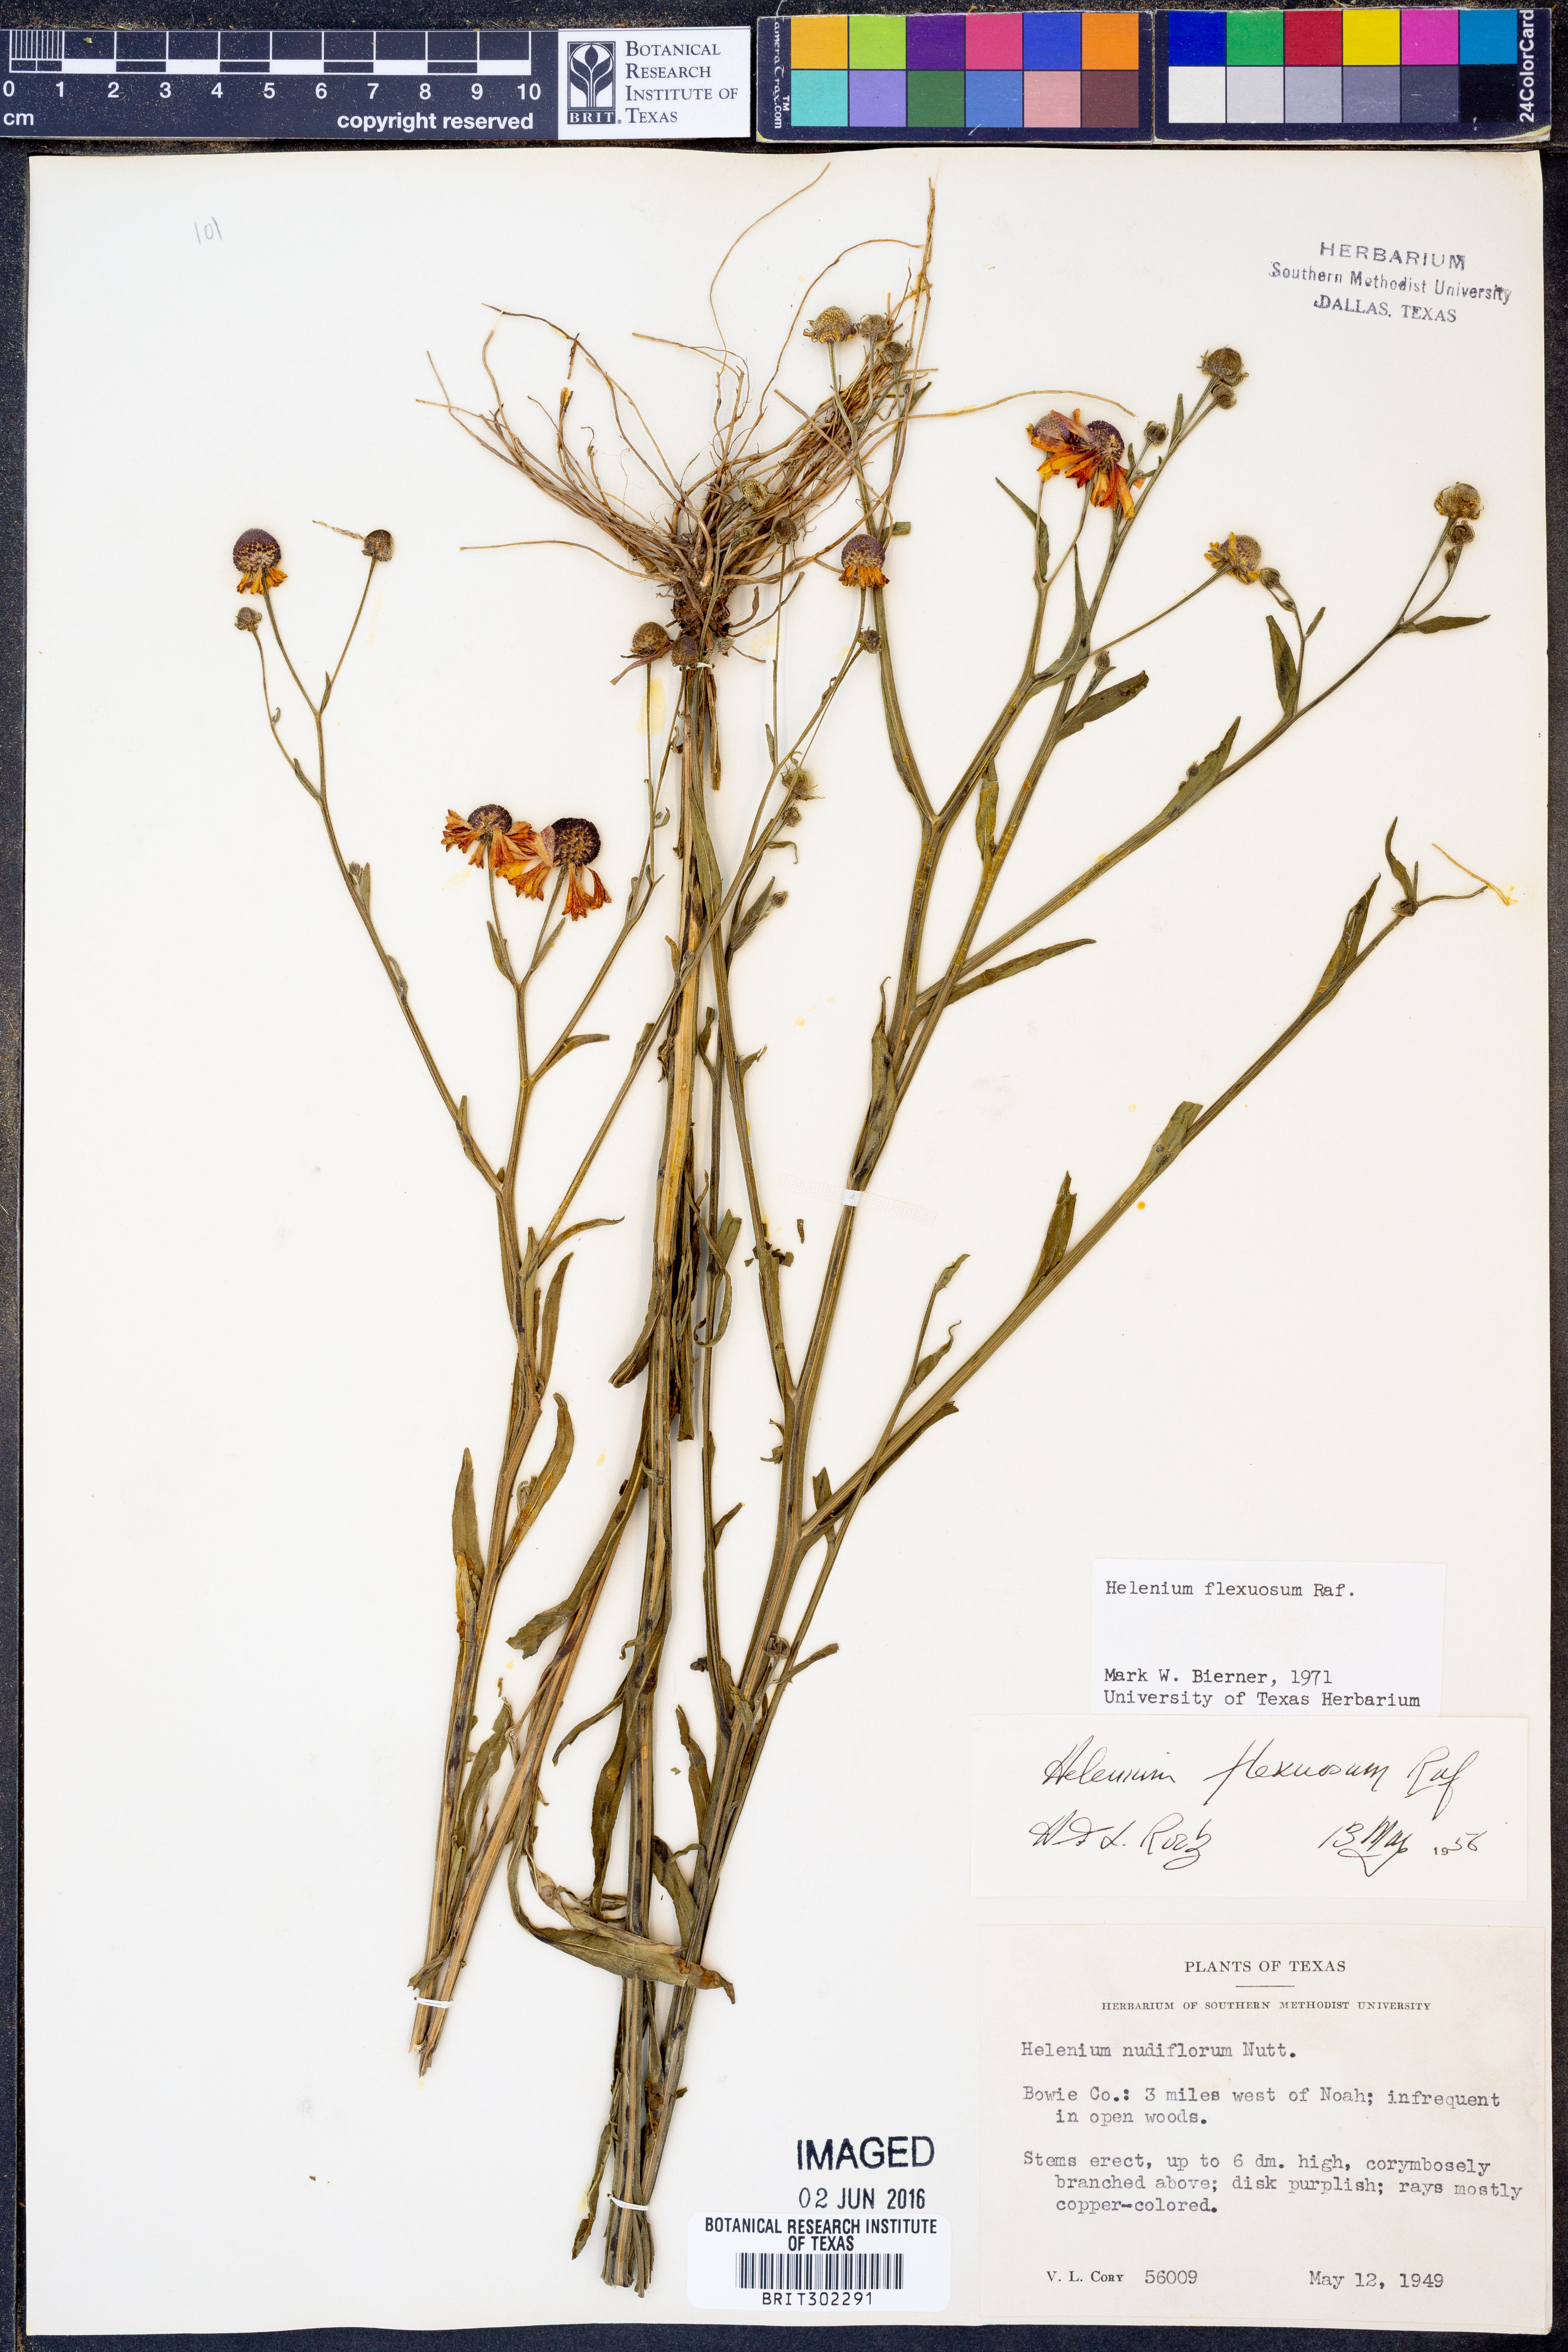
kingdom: Plantae
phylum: Tracheophyta
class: Magnoliopsida
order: Asterales
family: Asteraceae
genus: Helenium
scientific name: Helenium flexuosum
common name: Naked-flowered sneezeweed
